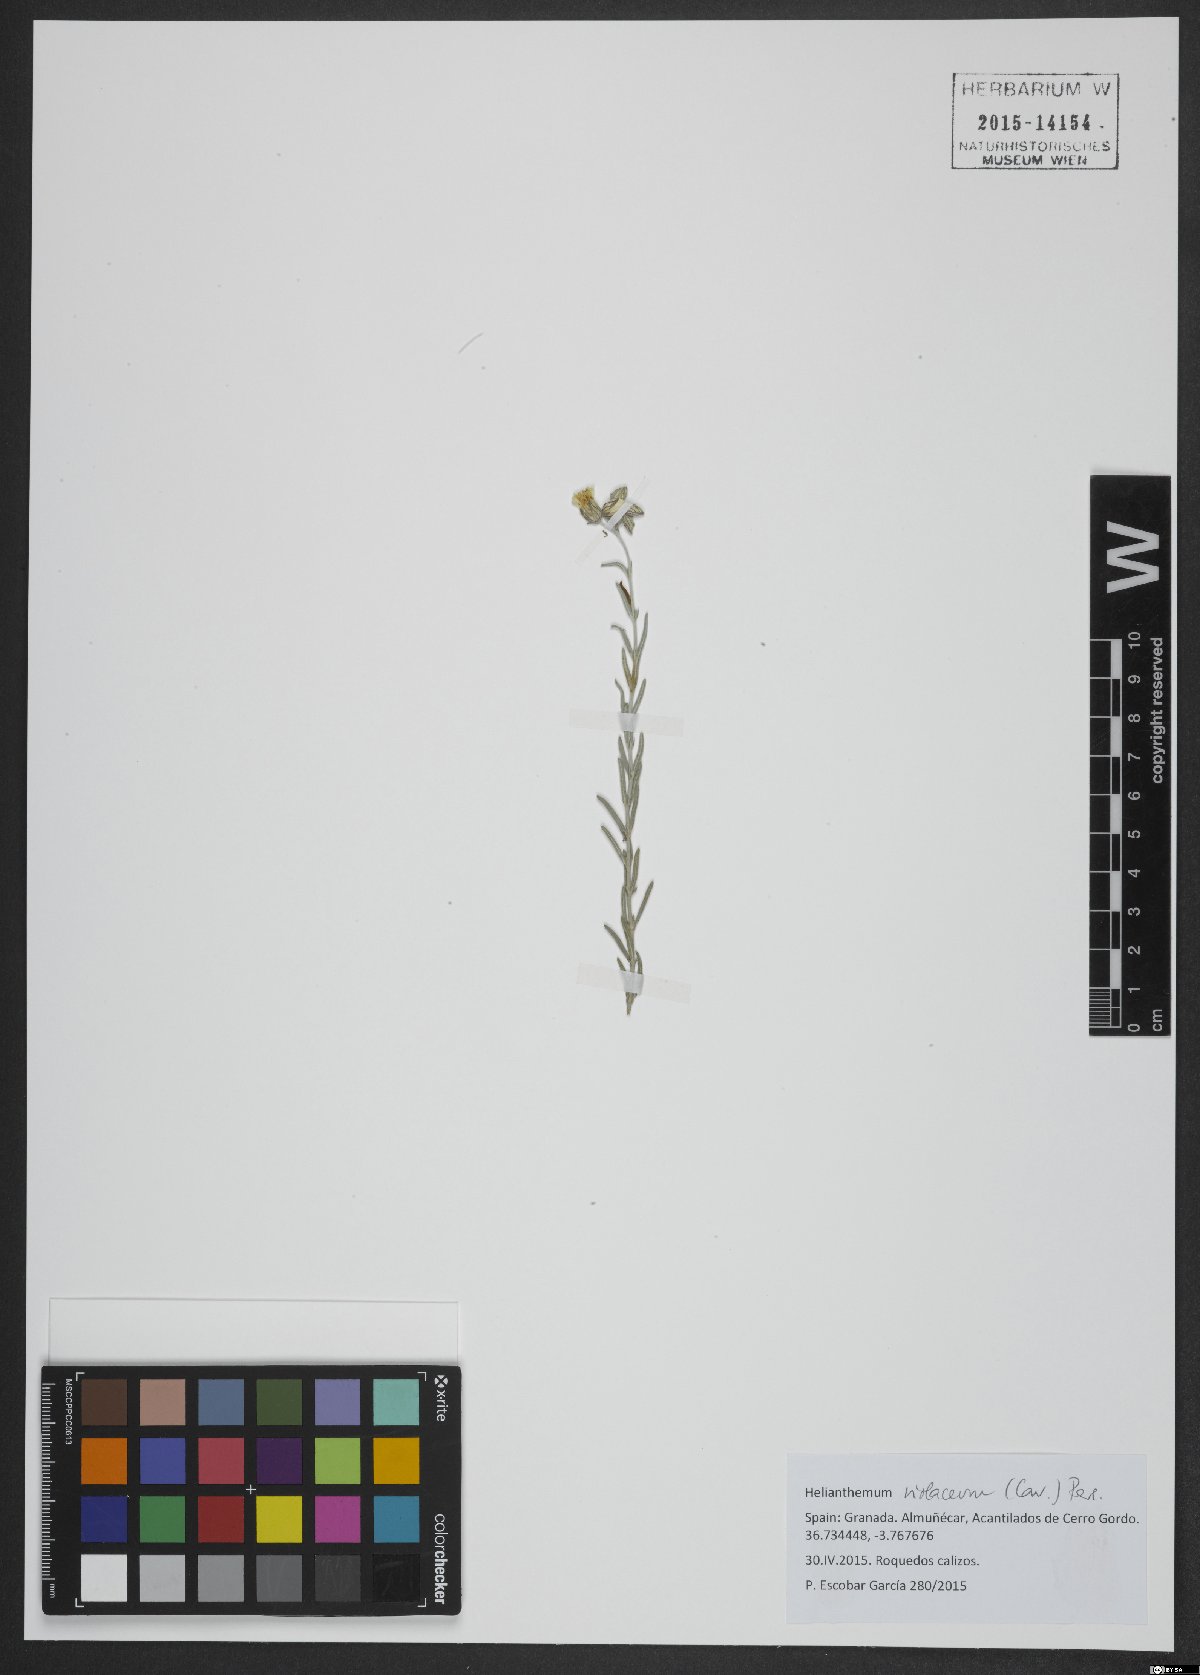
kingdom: Plantae
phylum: Tracheophyta
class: Magnoliopsida
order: Malvales
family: Cistaceae
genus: Helianthemum
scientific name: Helianthemum violaceum
